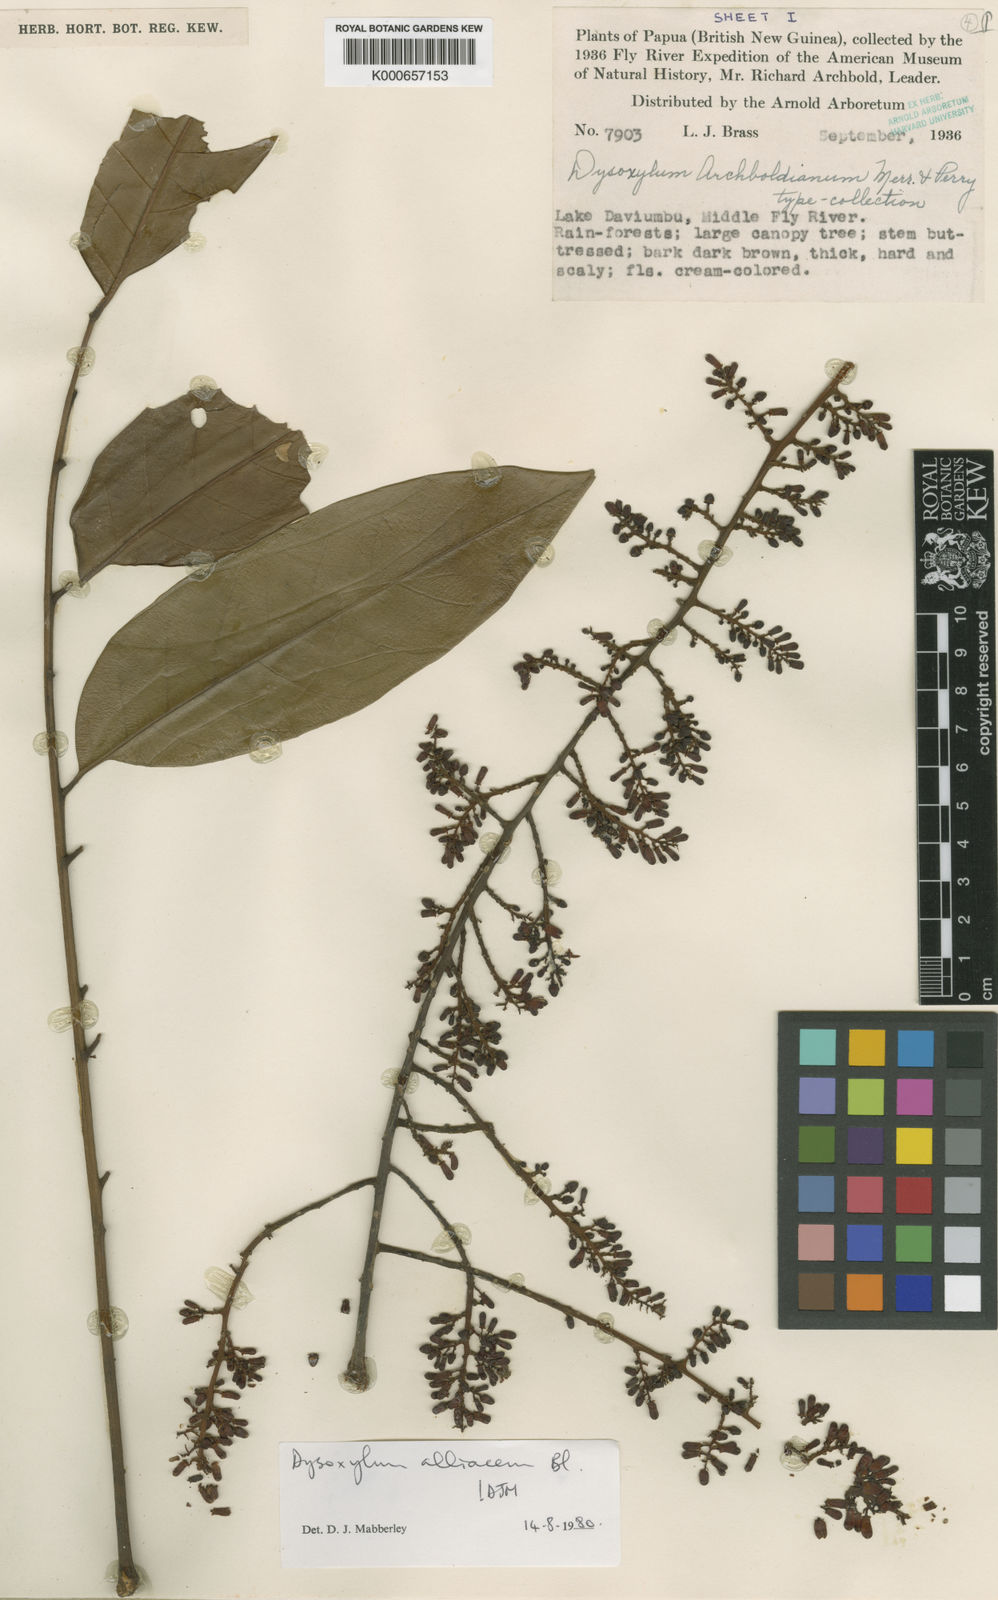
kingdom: Plantae
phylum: Tracheophyta
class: Magnoliopsida
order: Sapindales
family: Meliaceae
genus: Prasoxylon
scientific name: Prasoxylon alliaceum
